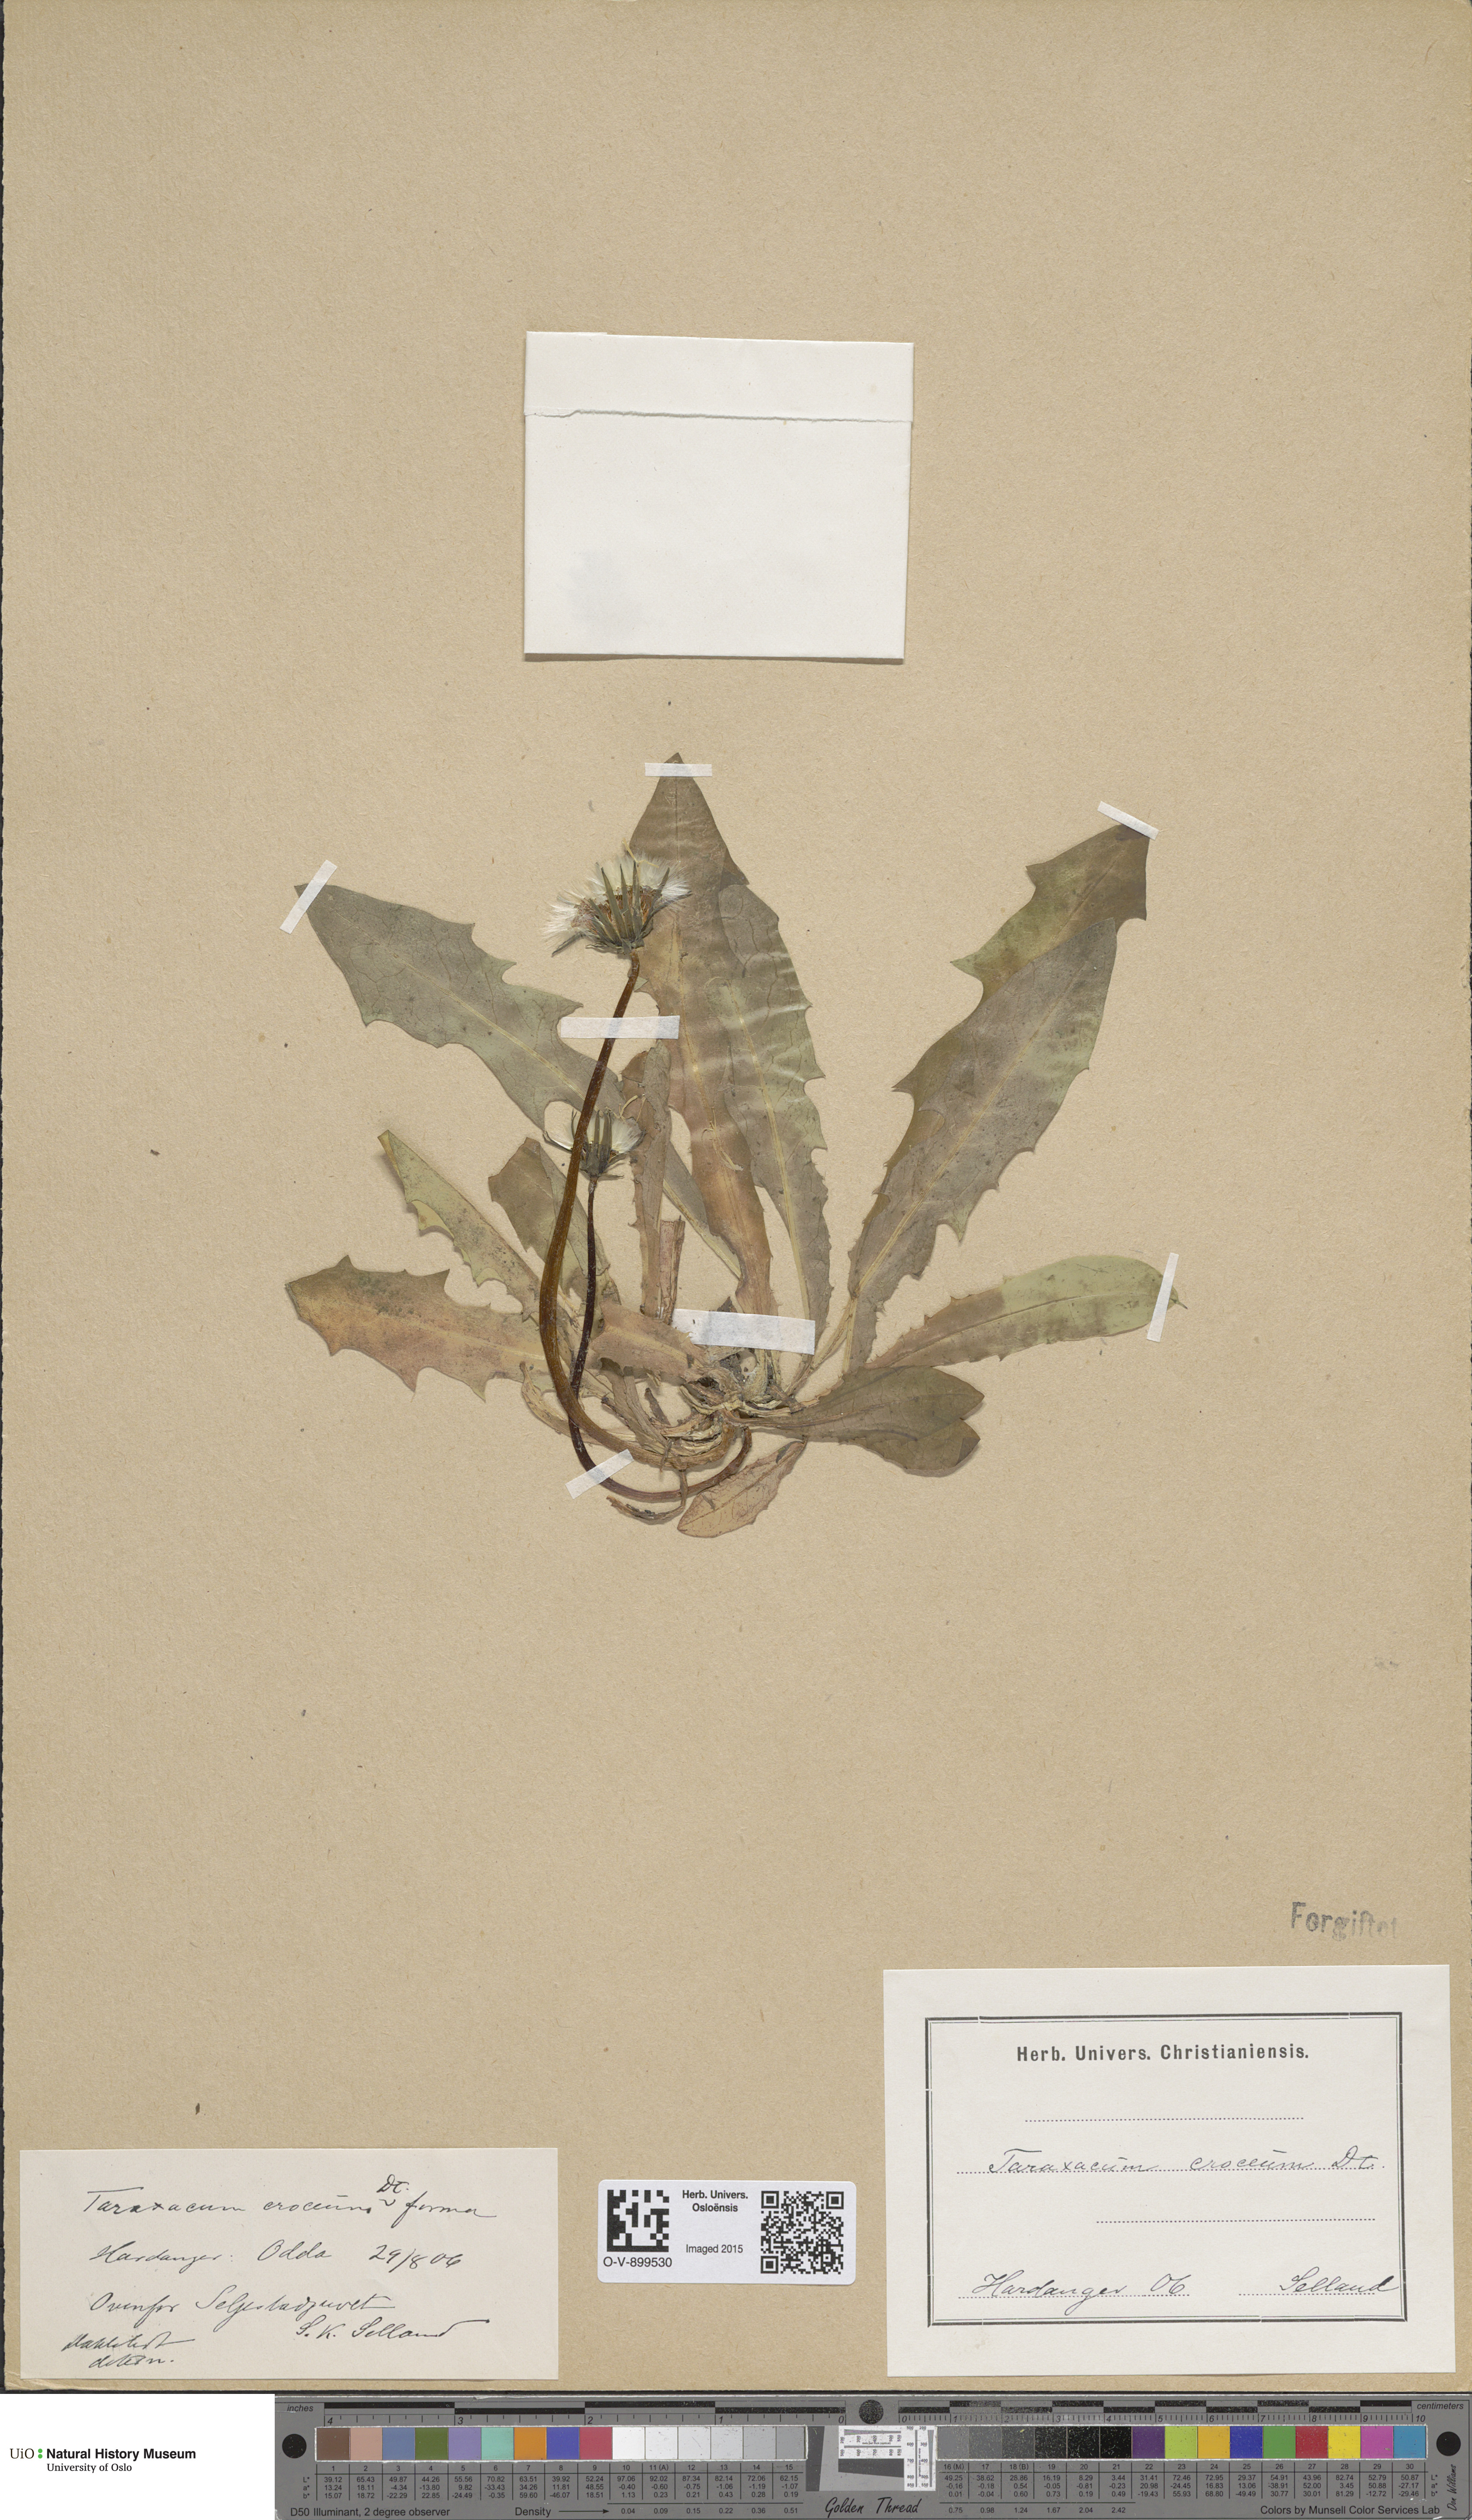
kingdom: Plantae
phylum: Tracheophyta
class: Magnoliopsida
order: Asterales
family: Asteraceae
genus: Taraxacum
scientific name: Taraxacum croceum
